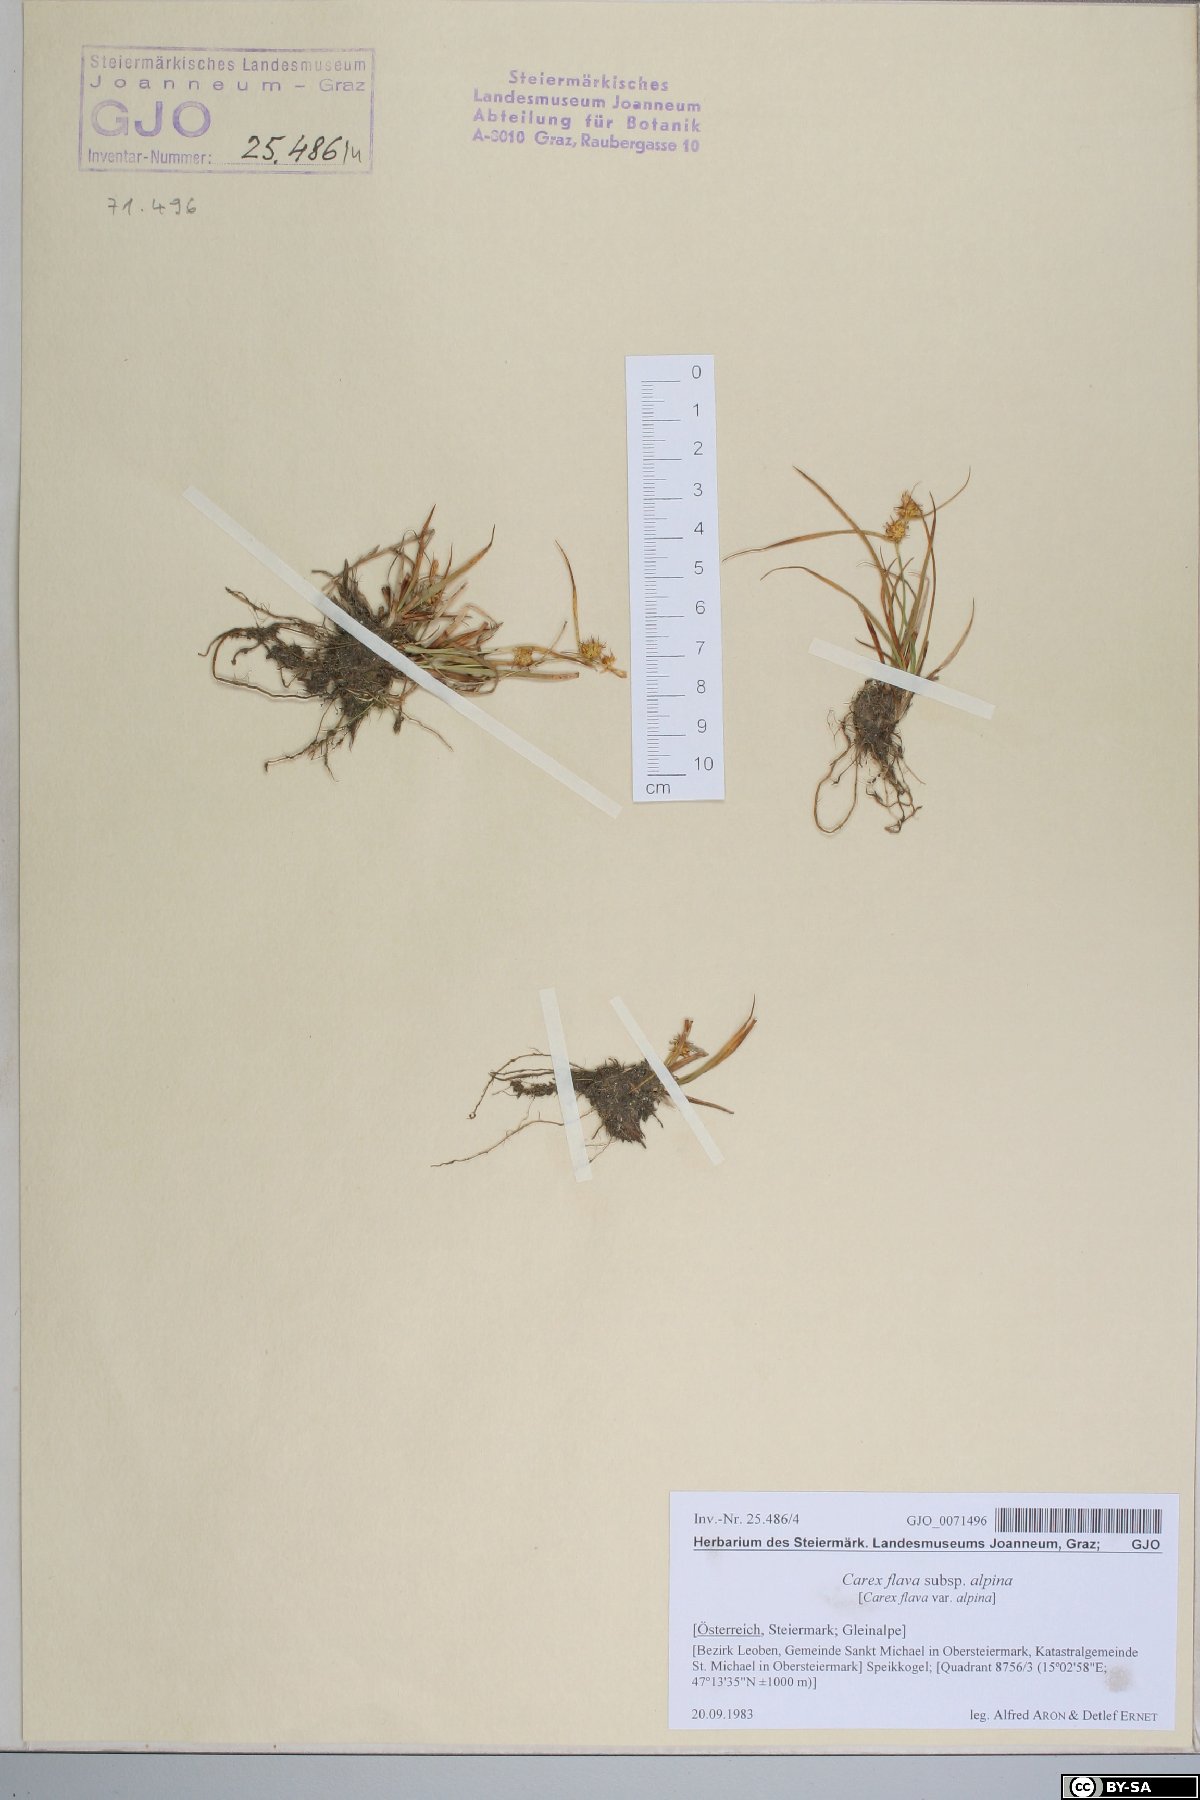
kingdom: Plantae
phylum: Tracheophyta
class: Liliopsida
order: Poales
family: Cyperaceae
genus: Carex
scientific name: Carex flava
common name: Large yellow-sedge
